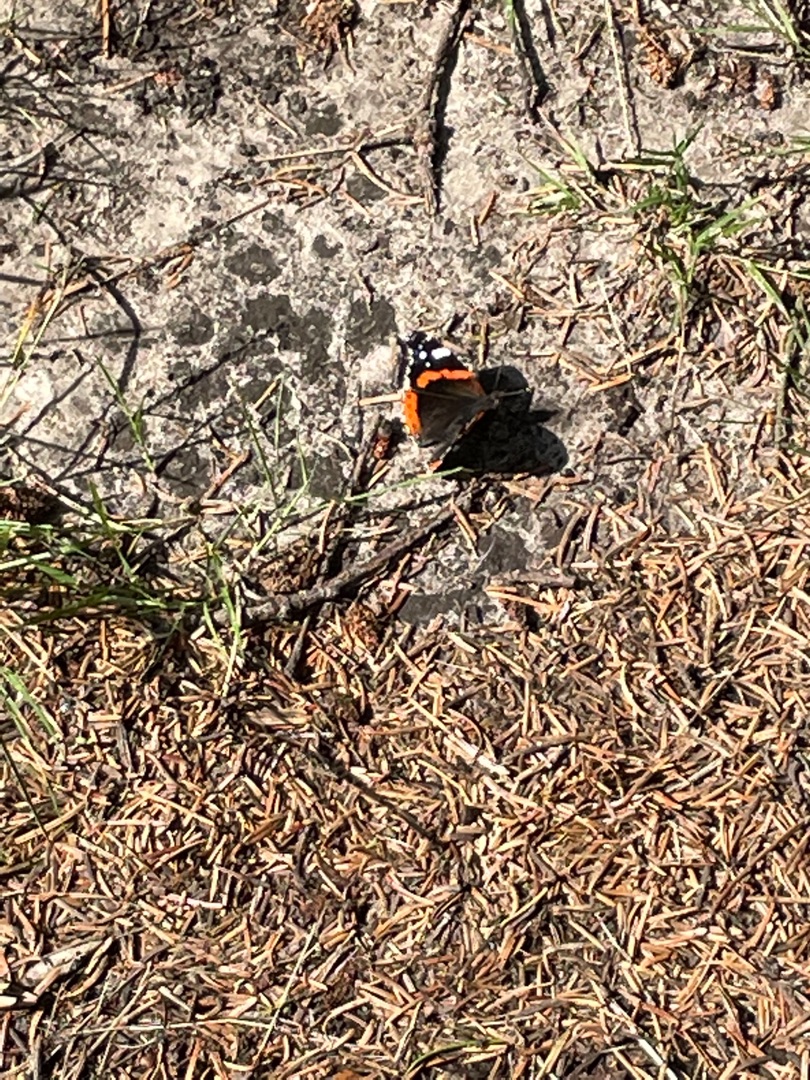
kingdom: Animalia
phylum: Arthropoda
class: Insecta
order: Lepidoptera
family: Nymphalidae
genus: Vanessa
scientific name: Vanessa atalanta
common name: Admiral
